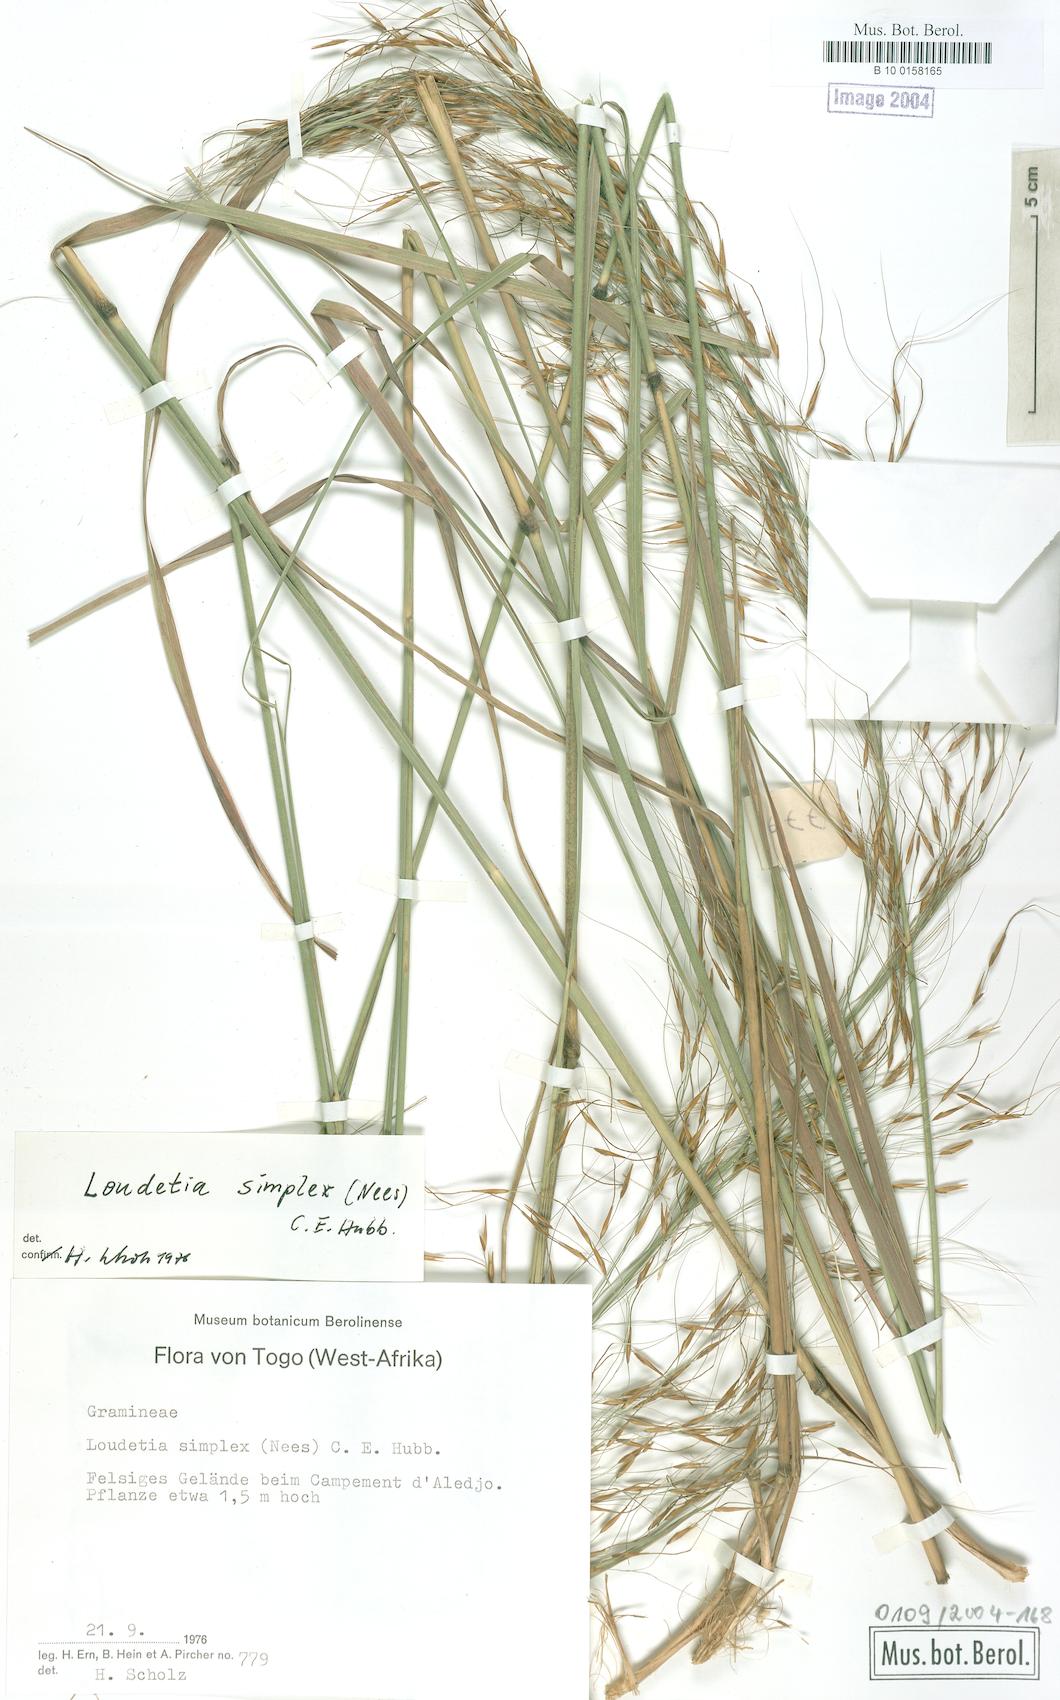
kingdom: Plantae
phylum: Tracheophyta
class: Liliopsida
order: Poales
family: Poaceae
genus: Loudetia
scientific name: Loudetia simplex
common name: Common russet grass
